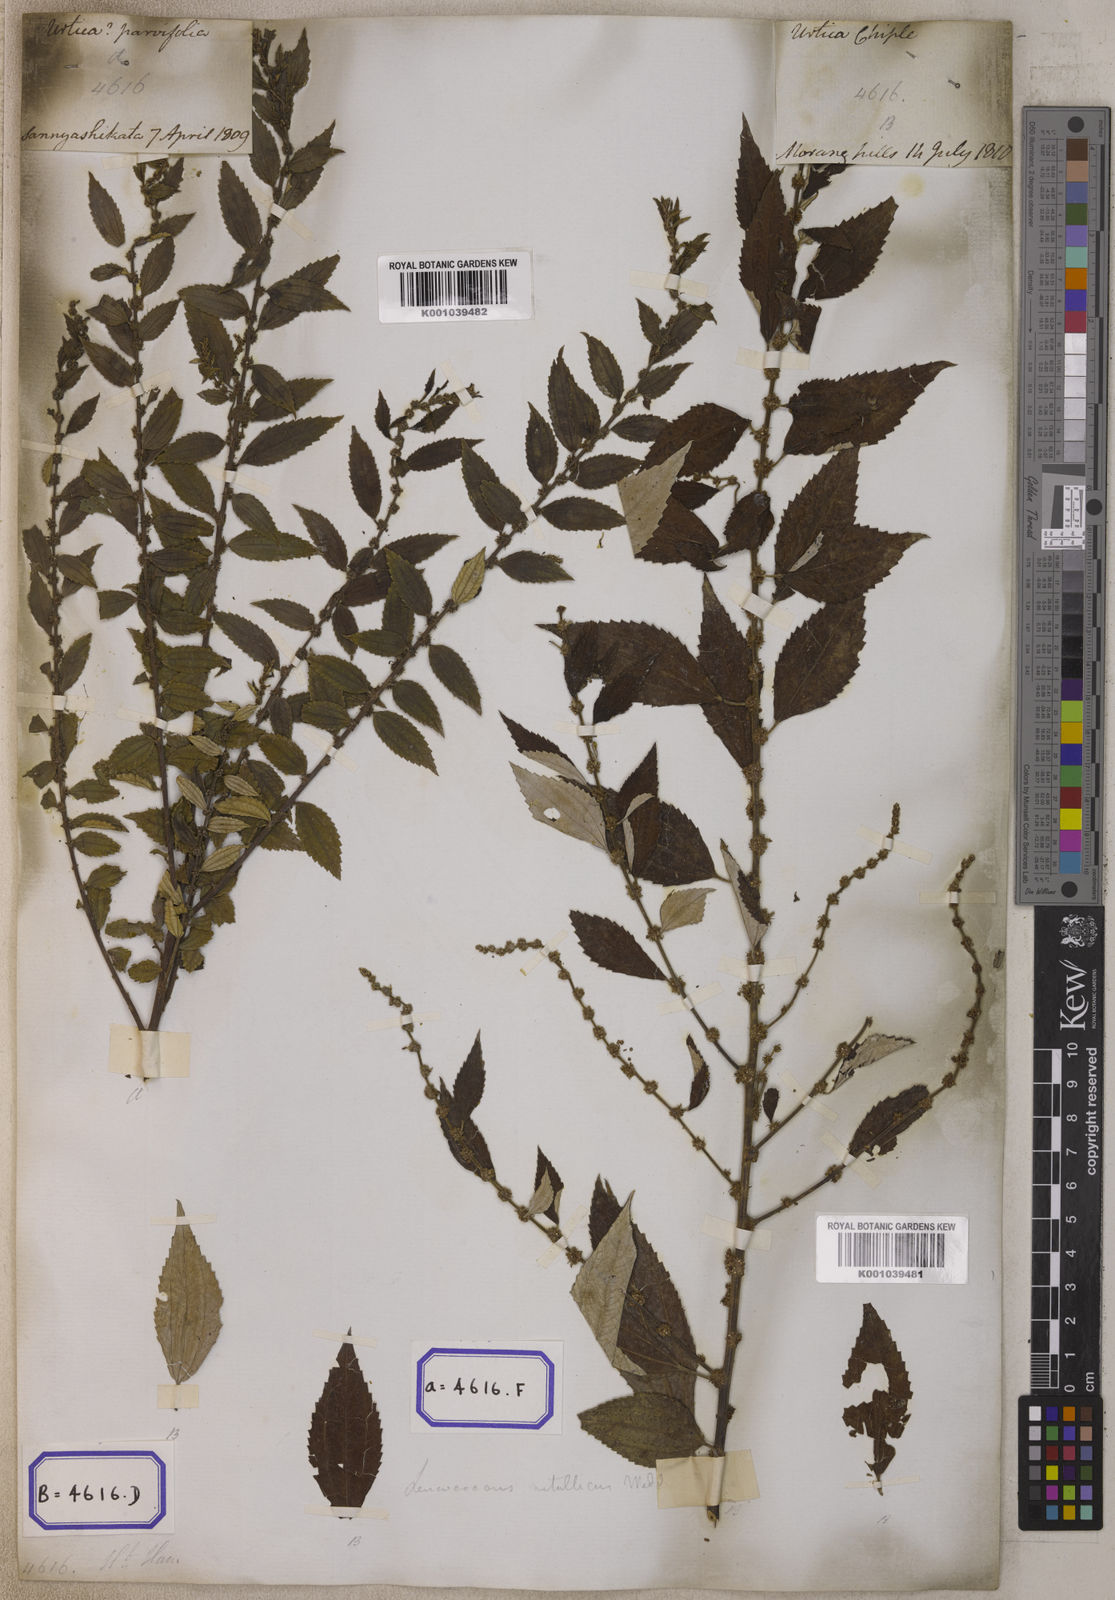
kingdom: Plantae
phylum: Tracheophyta
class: Magnoliopsida
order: Rosales
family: Urticaceae
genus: Pouzolzia
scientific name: Pouzolzia sanguinea
